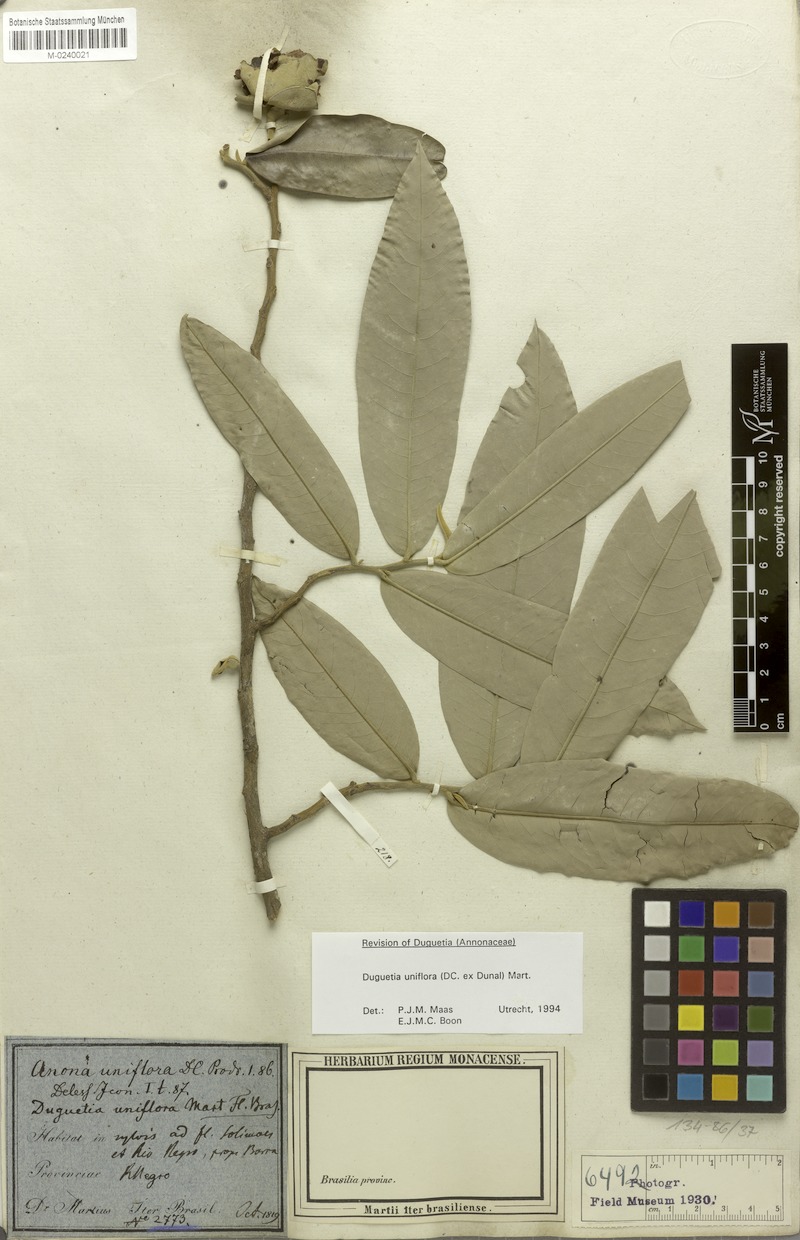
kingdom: Plantae
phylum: Tracheophyta
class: Magnoliopsida
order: Magnoliales
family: Annonaceae
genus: Duguetia
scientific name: Duguetia uniflora
